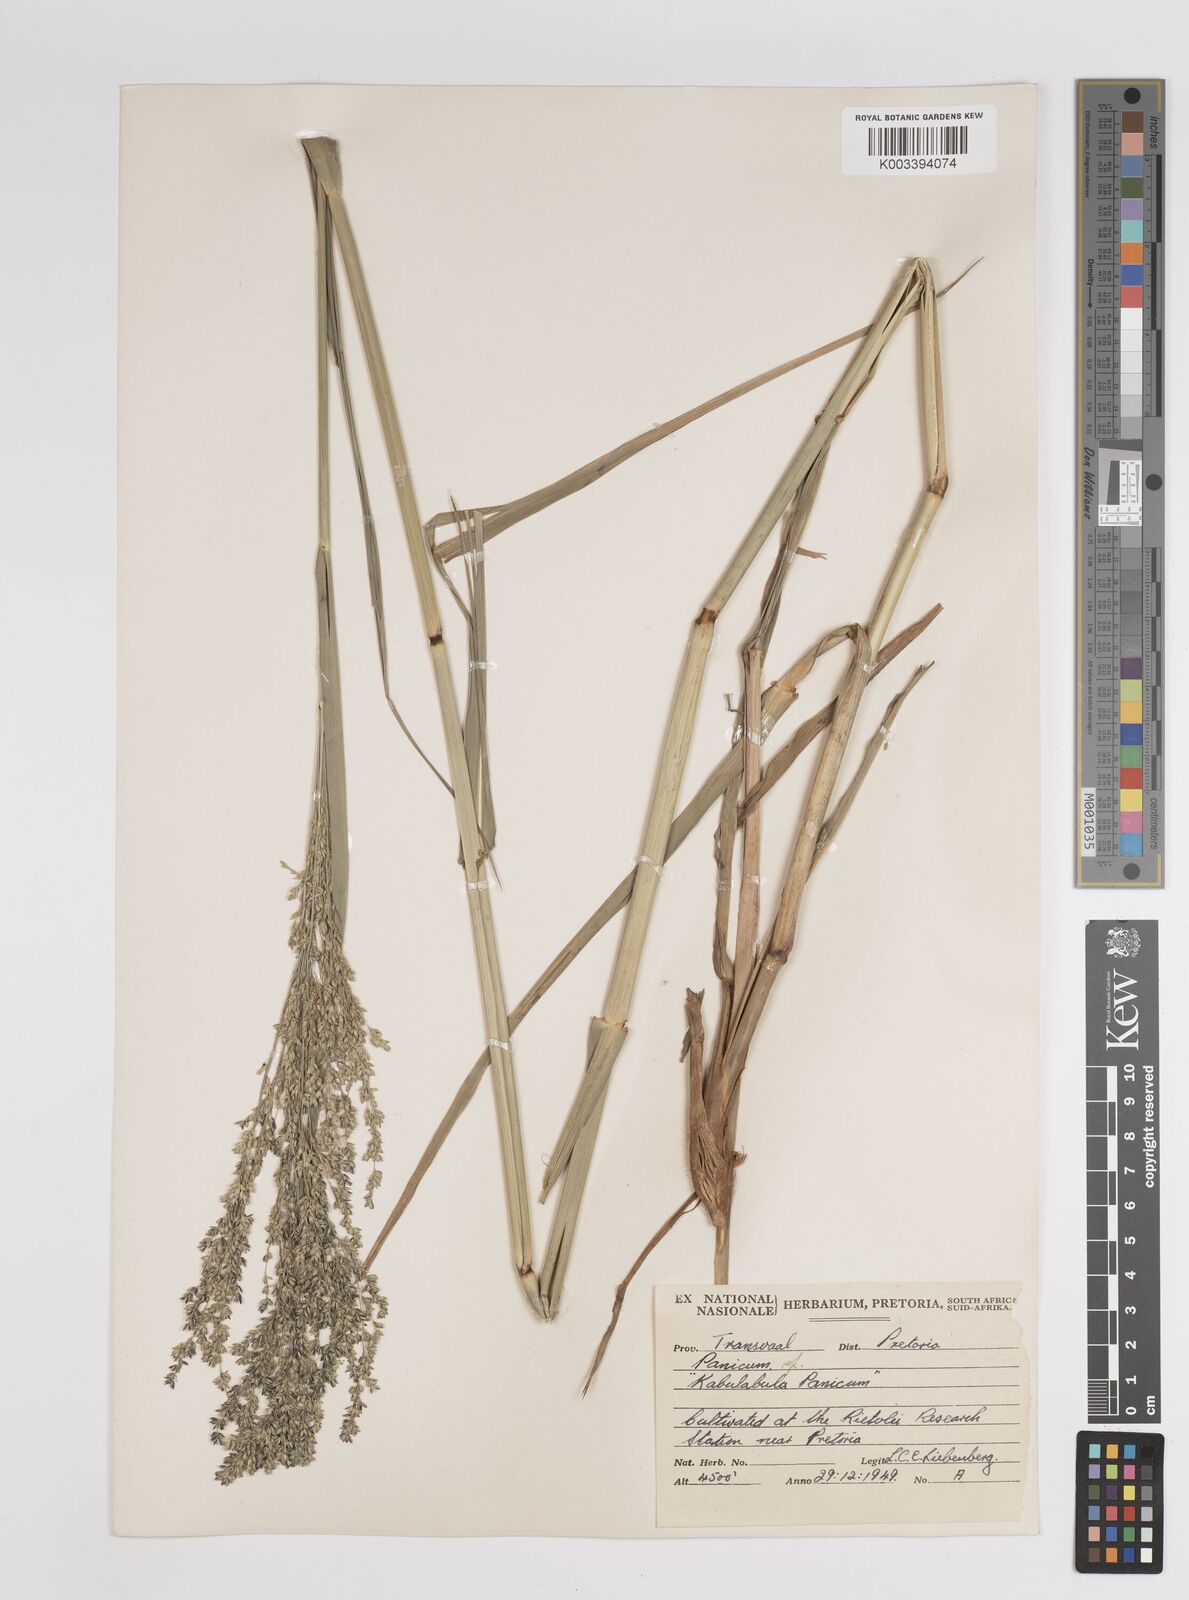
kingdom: Plantae
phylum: Tracheophyta
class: Liliopsida
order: Poales
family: Poaceae
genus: Panicum
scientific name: Panicum coloratum
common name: Kleingrass
